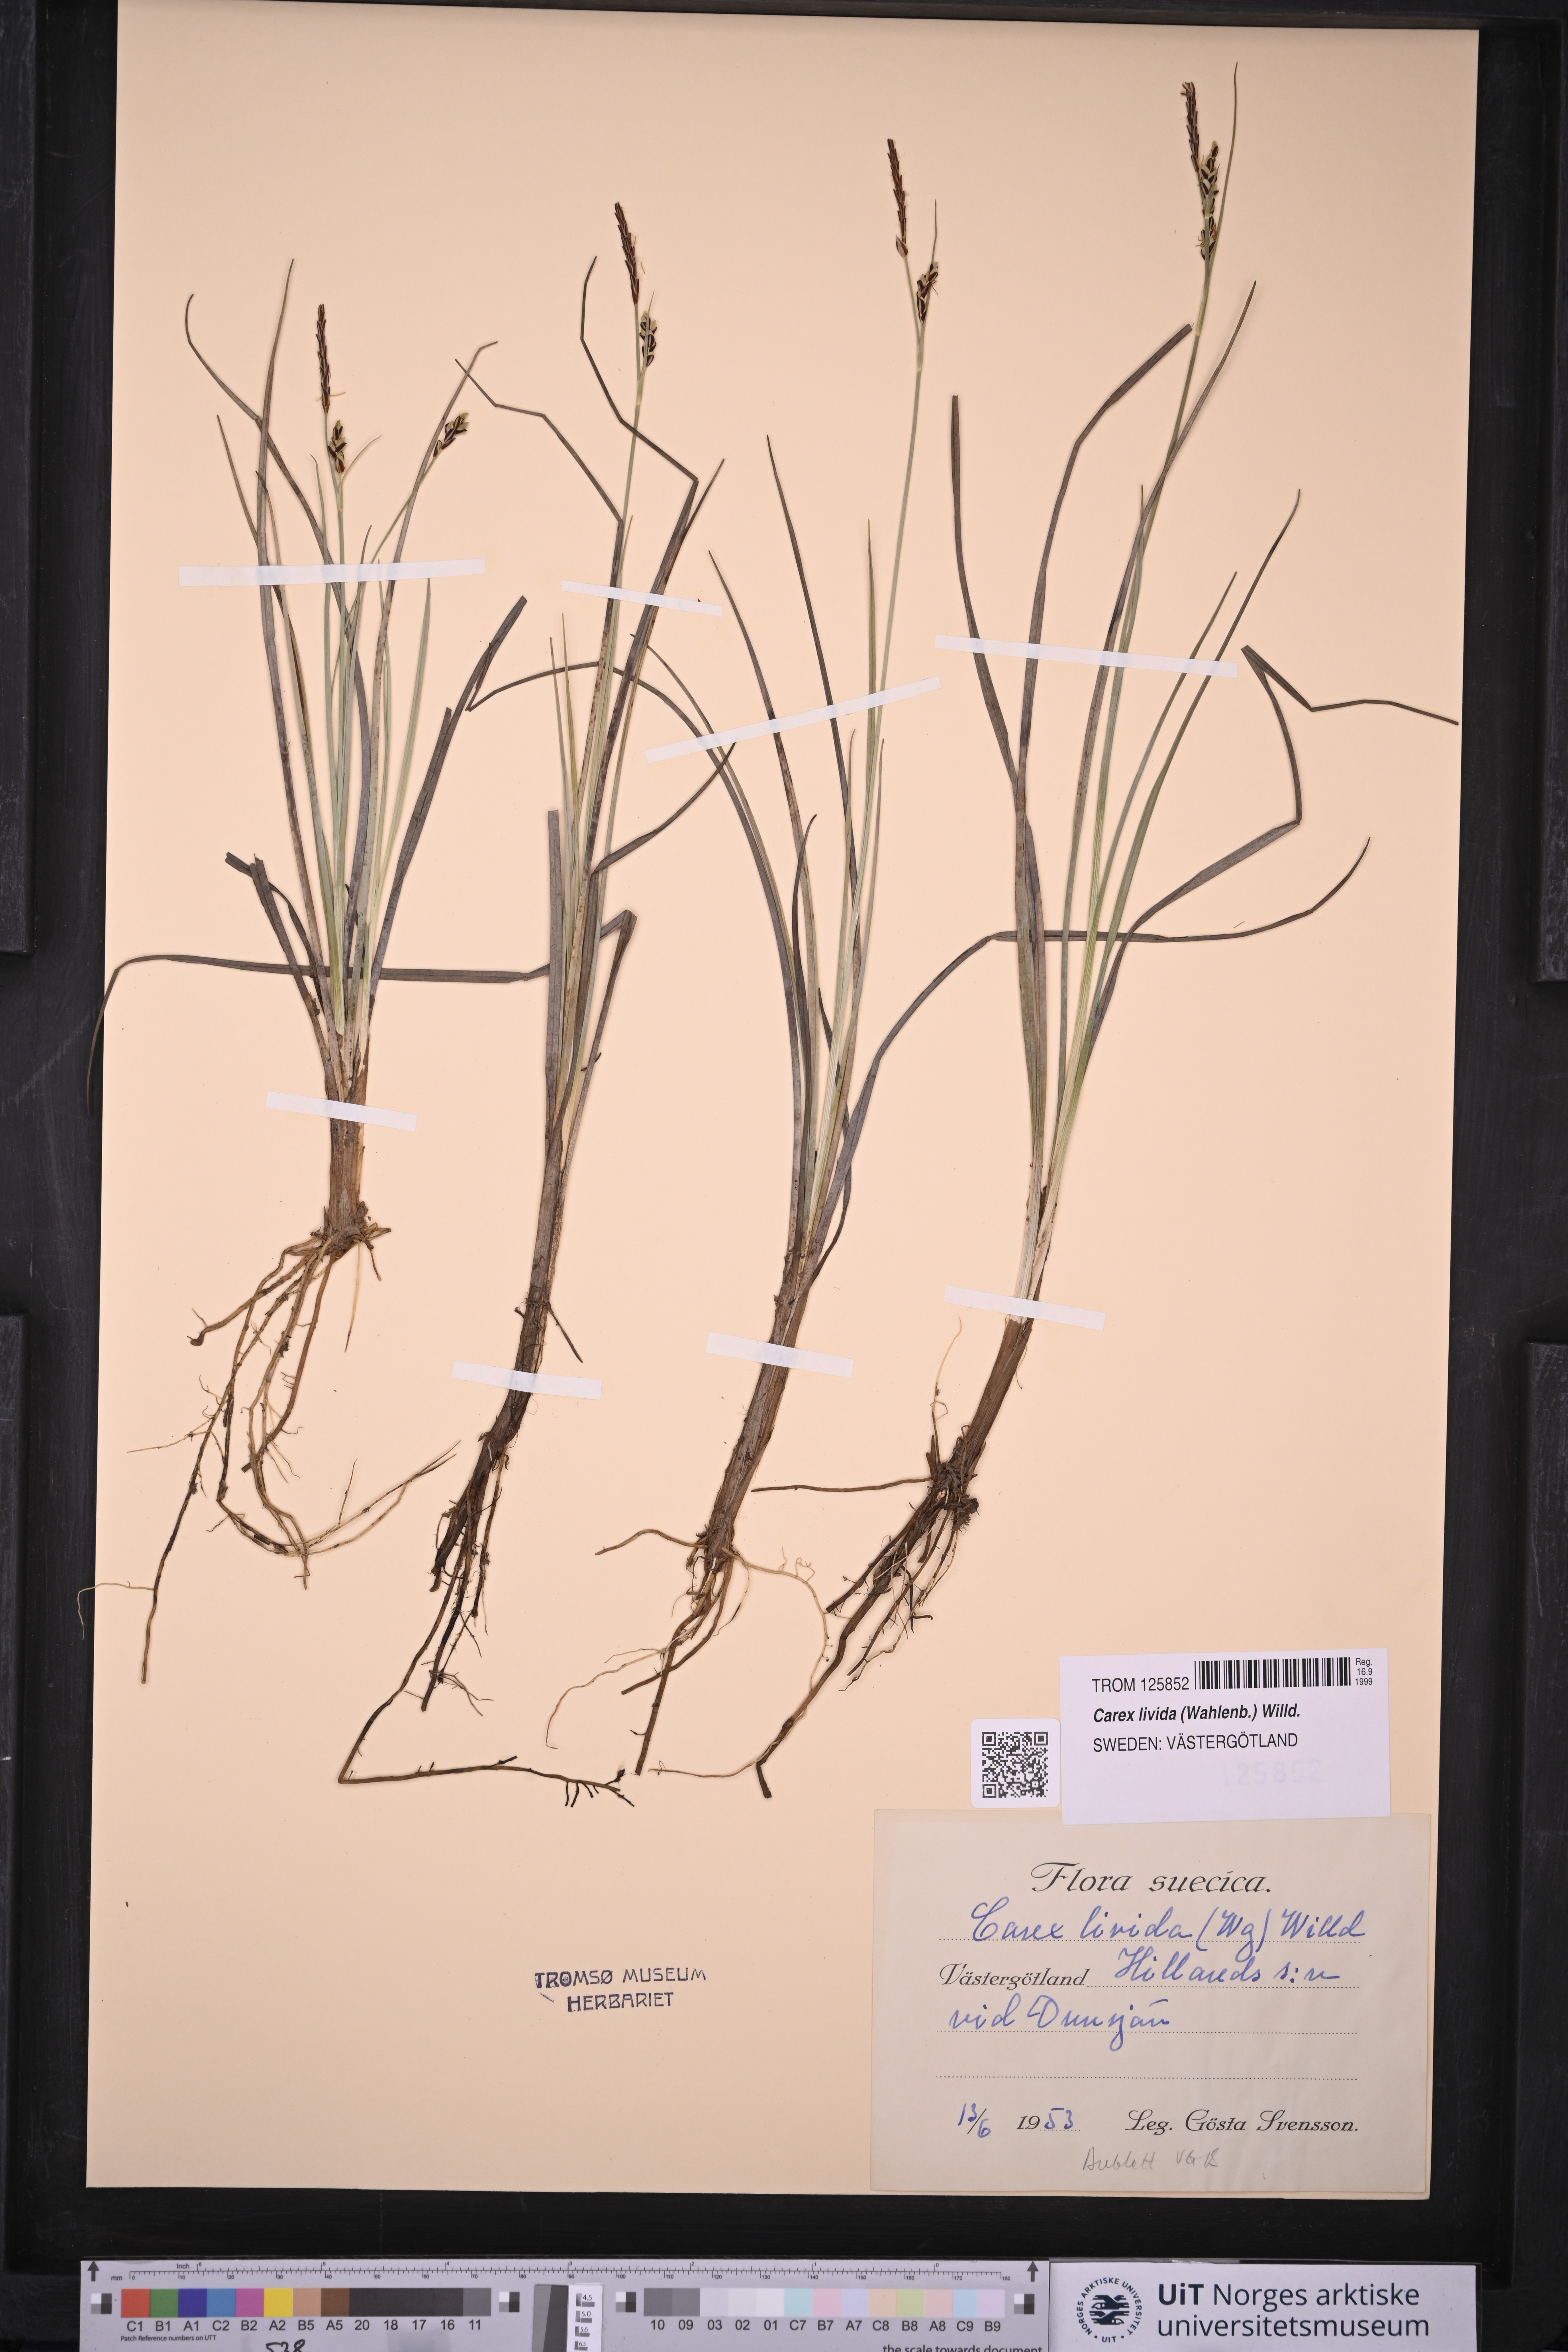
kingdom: Plantae
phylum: Tracheophyta
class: Liliopsida
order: Poales
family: Cyperaceae
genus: Carex
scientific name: Carex livida
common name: Livid sedge
